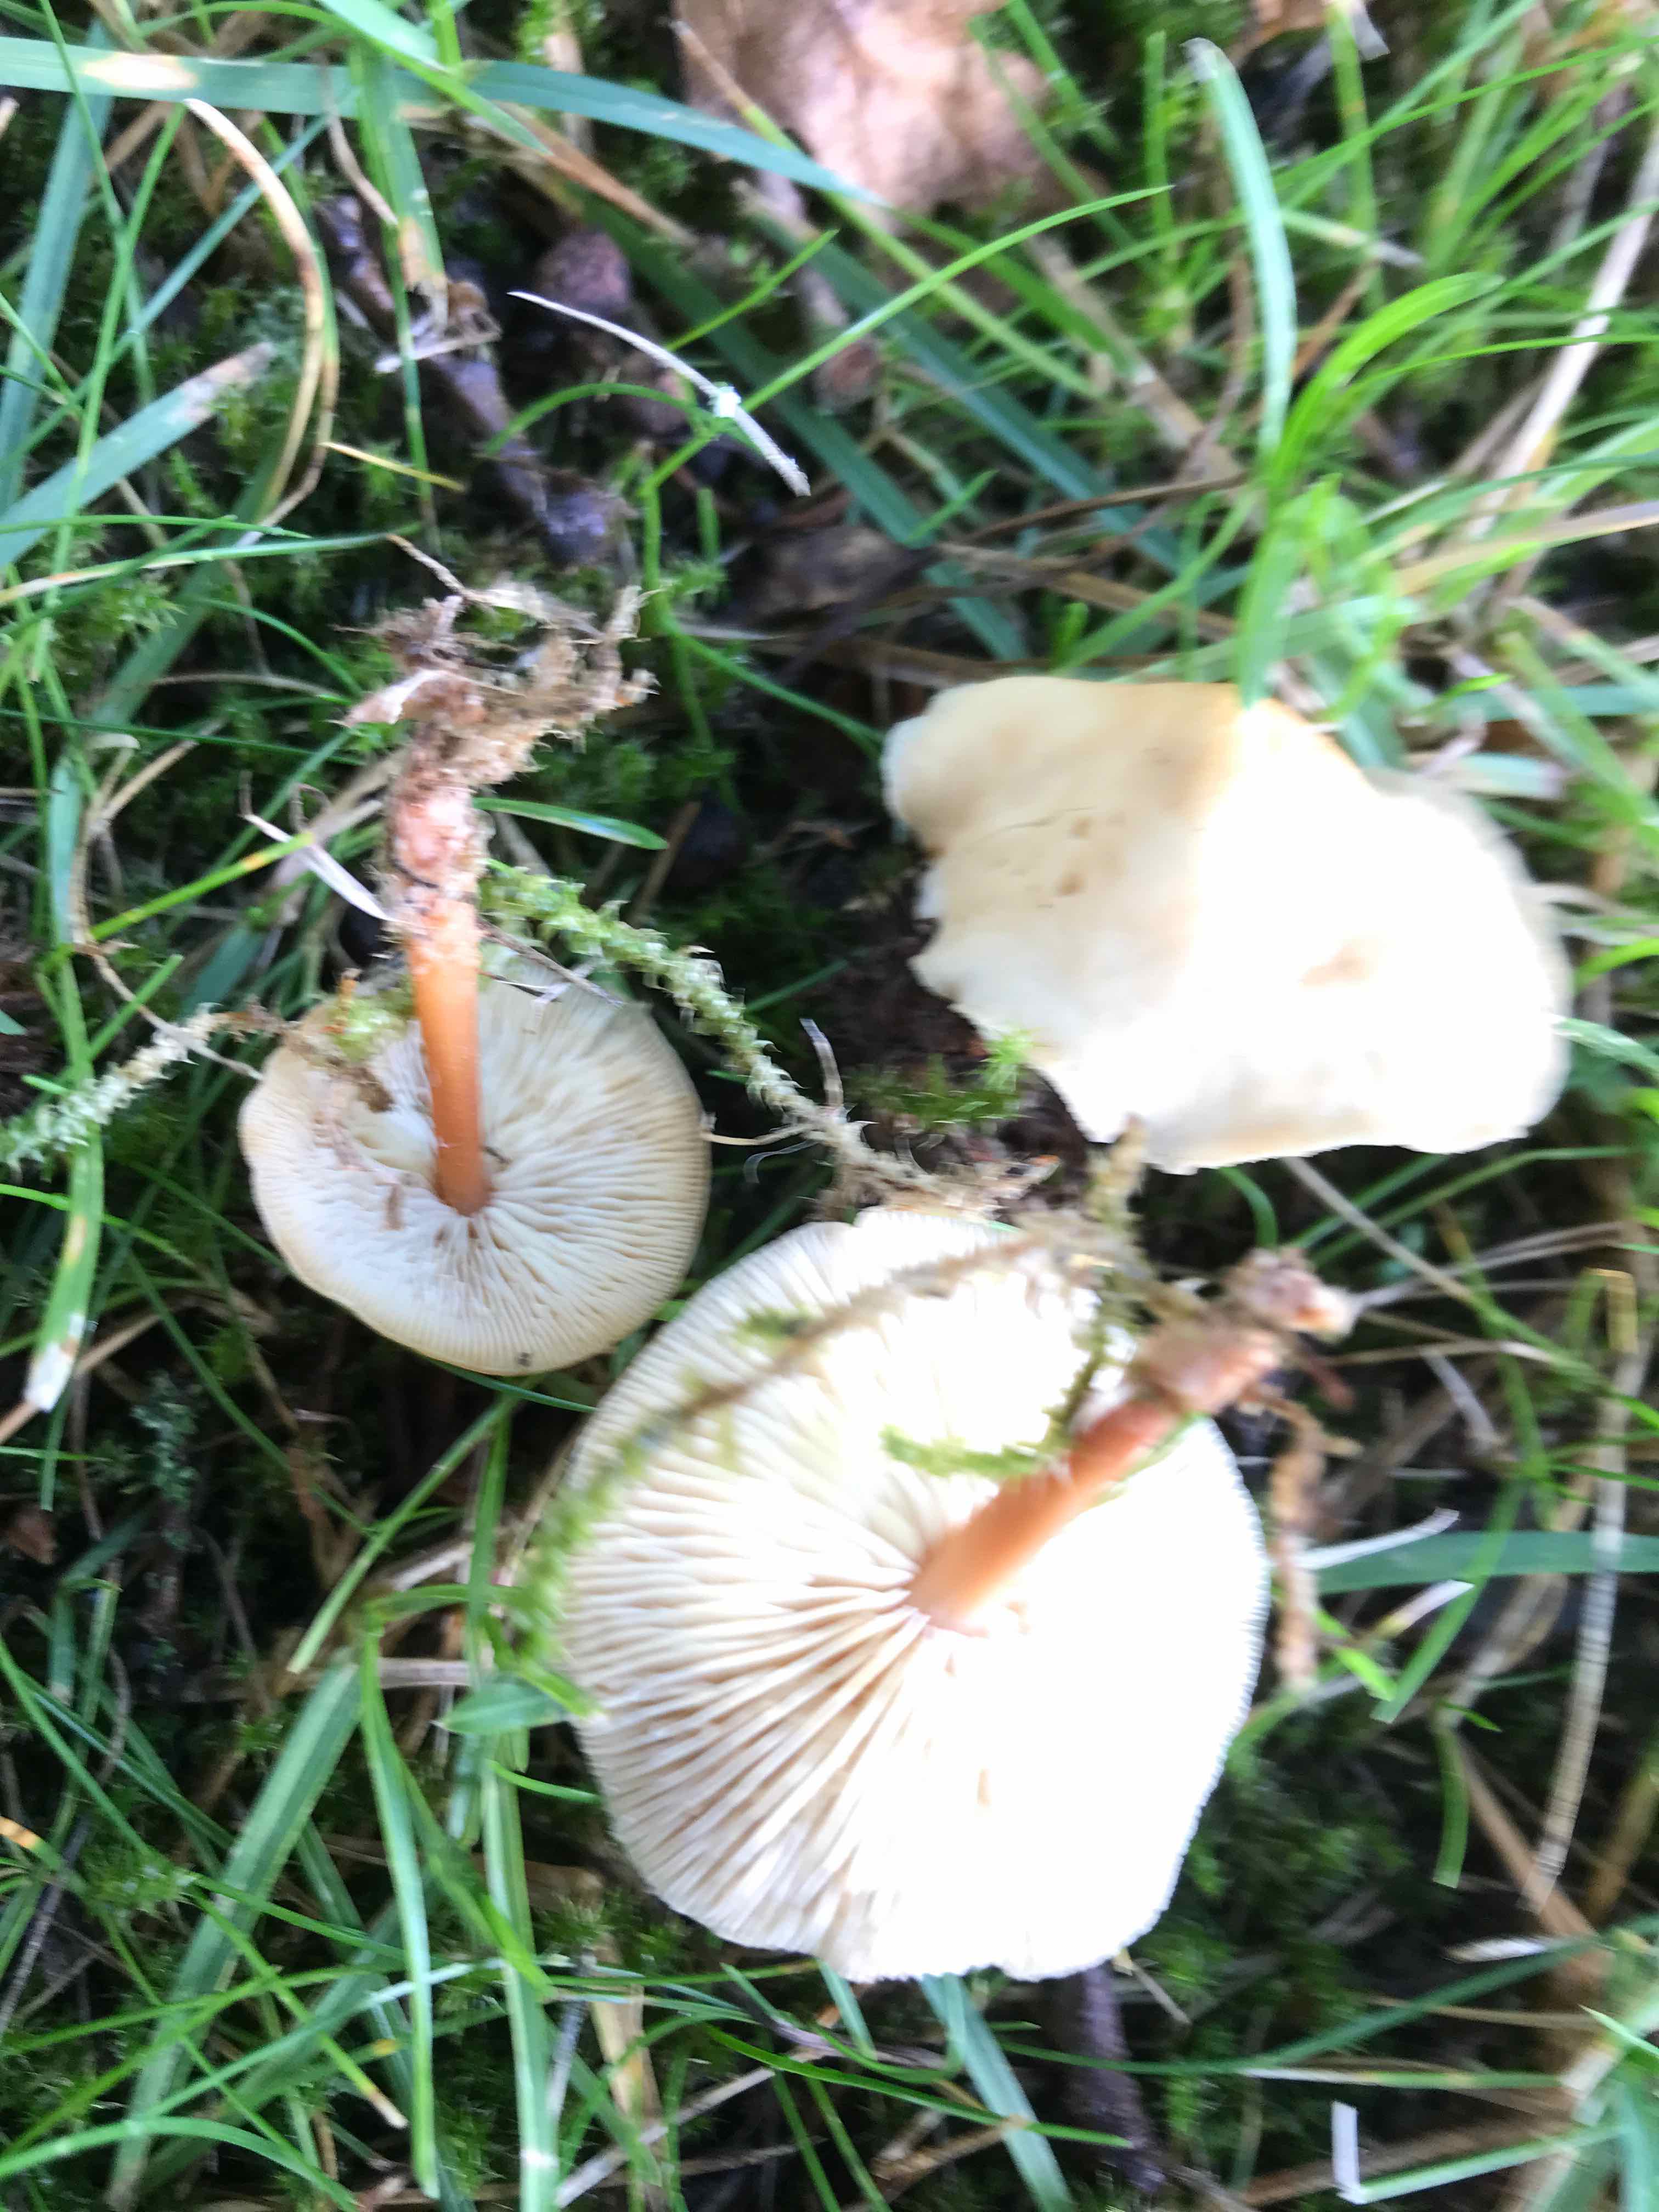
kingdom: Fungi
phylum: Basidiomycota
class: Agaricomycetes
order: Agaricales
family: Omphalotaceae
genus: Gymnopus
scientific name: Gymnopus dryophilus
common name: løv-fladhat
